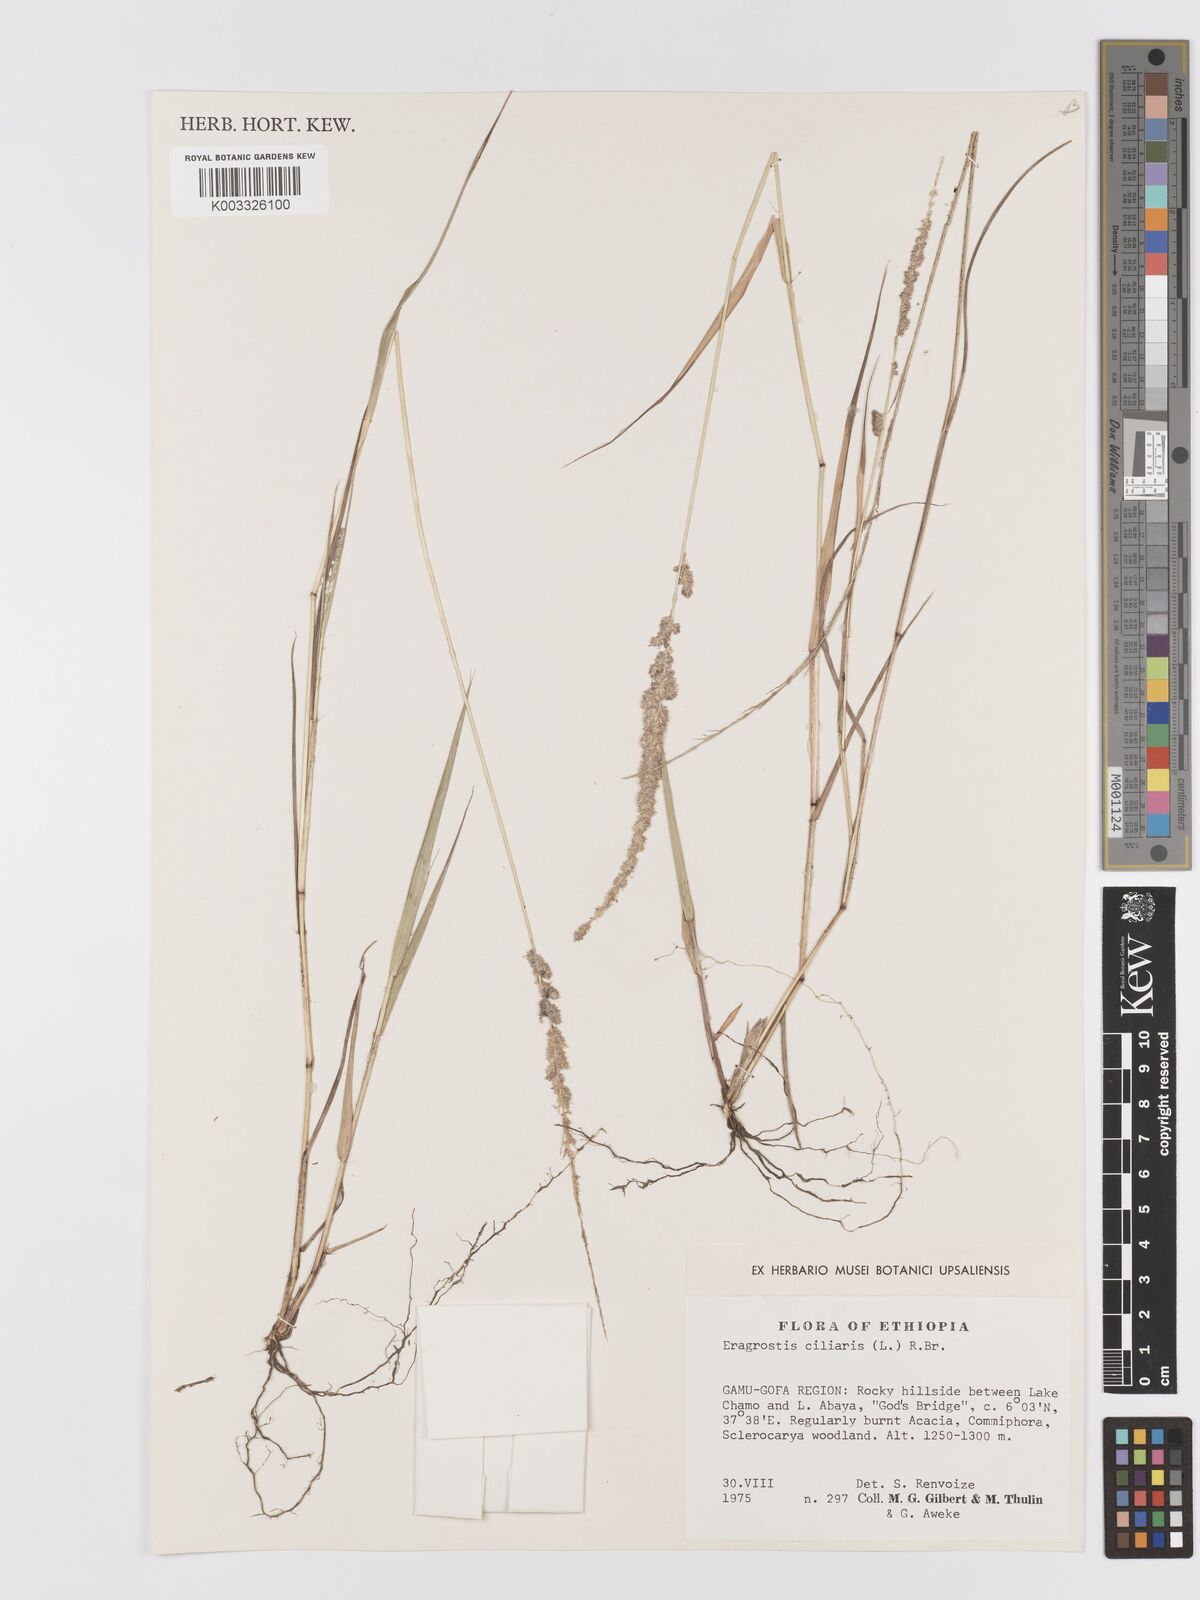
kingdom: Plantae
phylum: Tracheophyta
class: Liliopsida
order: Poales
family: Poaceae
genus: Eragrostis
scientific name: Eragrostis ciliaris
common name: Gophertail lovegrass
